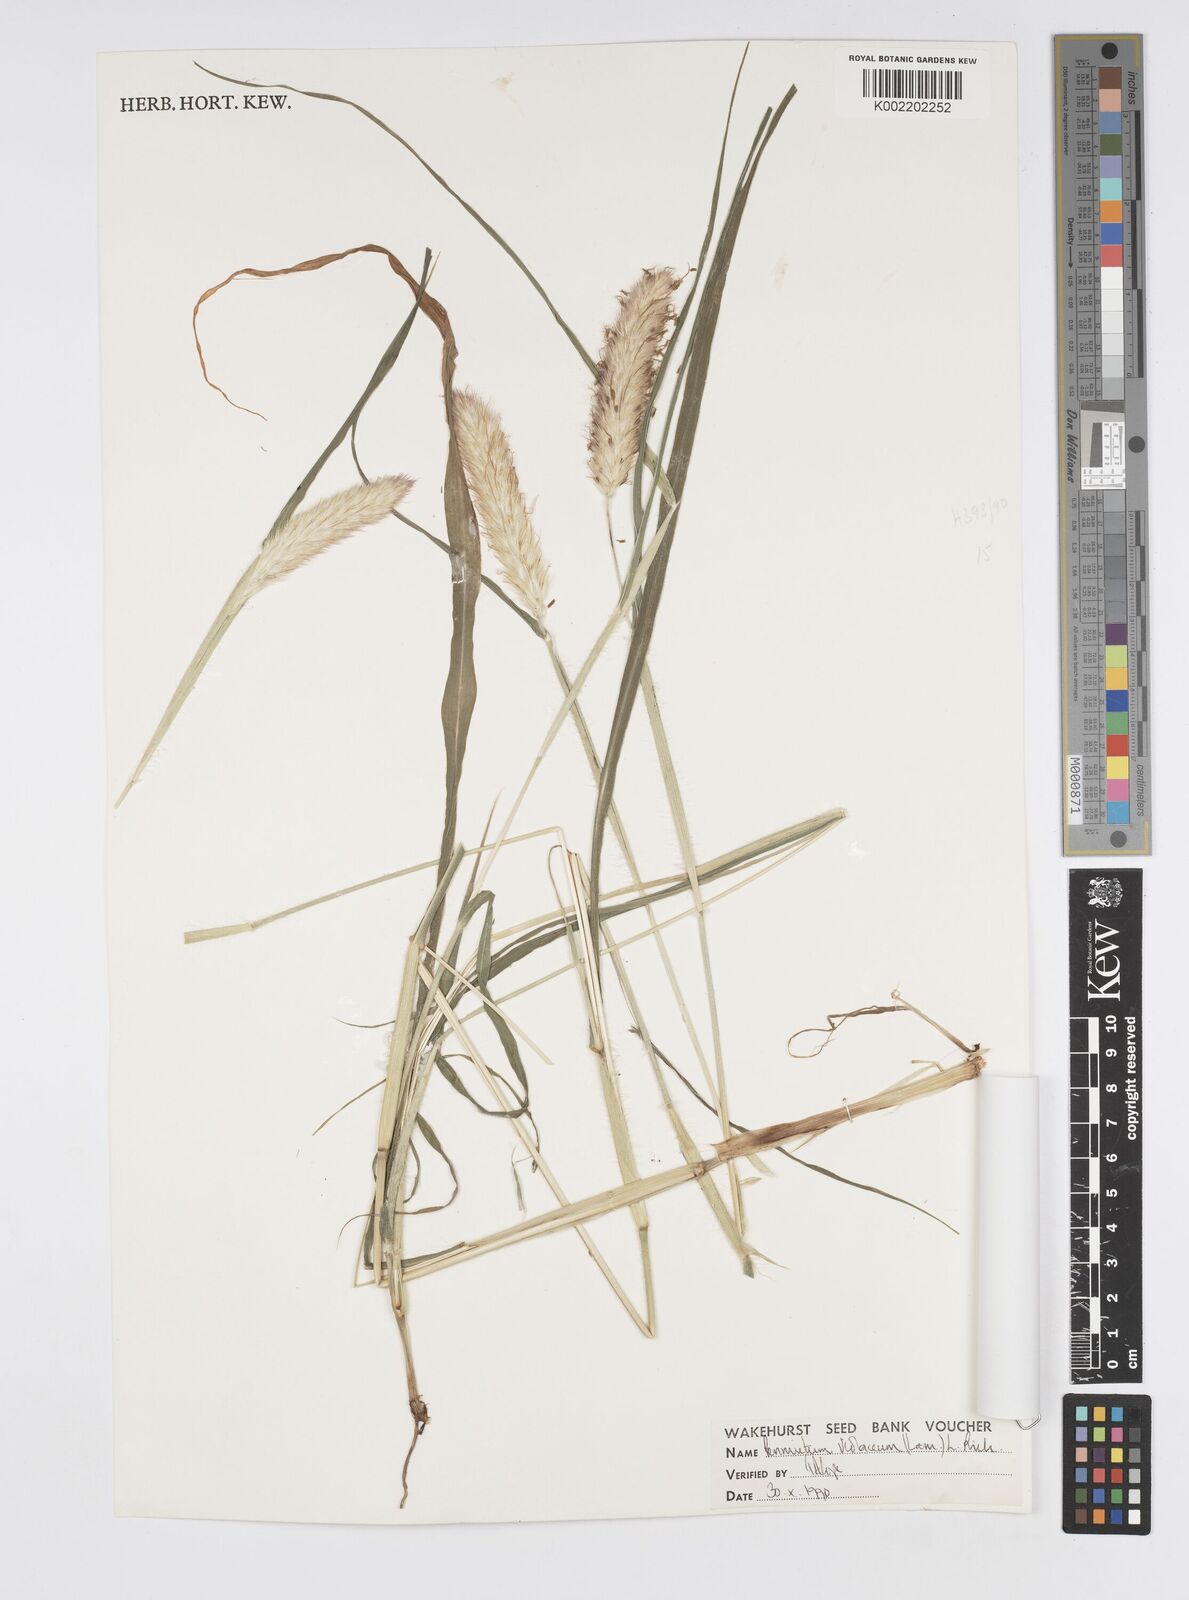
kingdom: Plantae
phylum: Tracheophyta
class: Liliopsida
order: Poales
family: Poaceae
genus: Cenchrus
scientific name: Cenchrus violaceus
